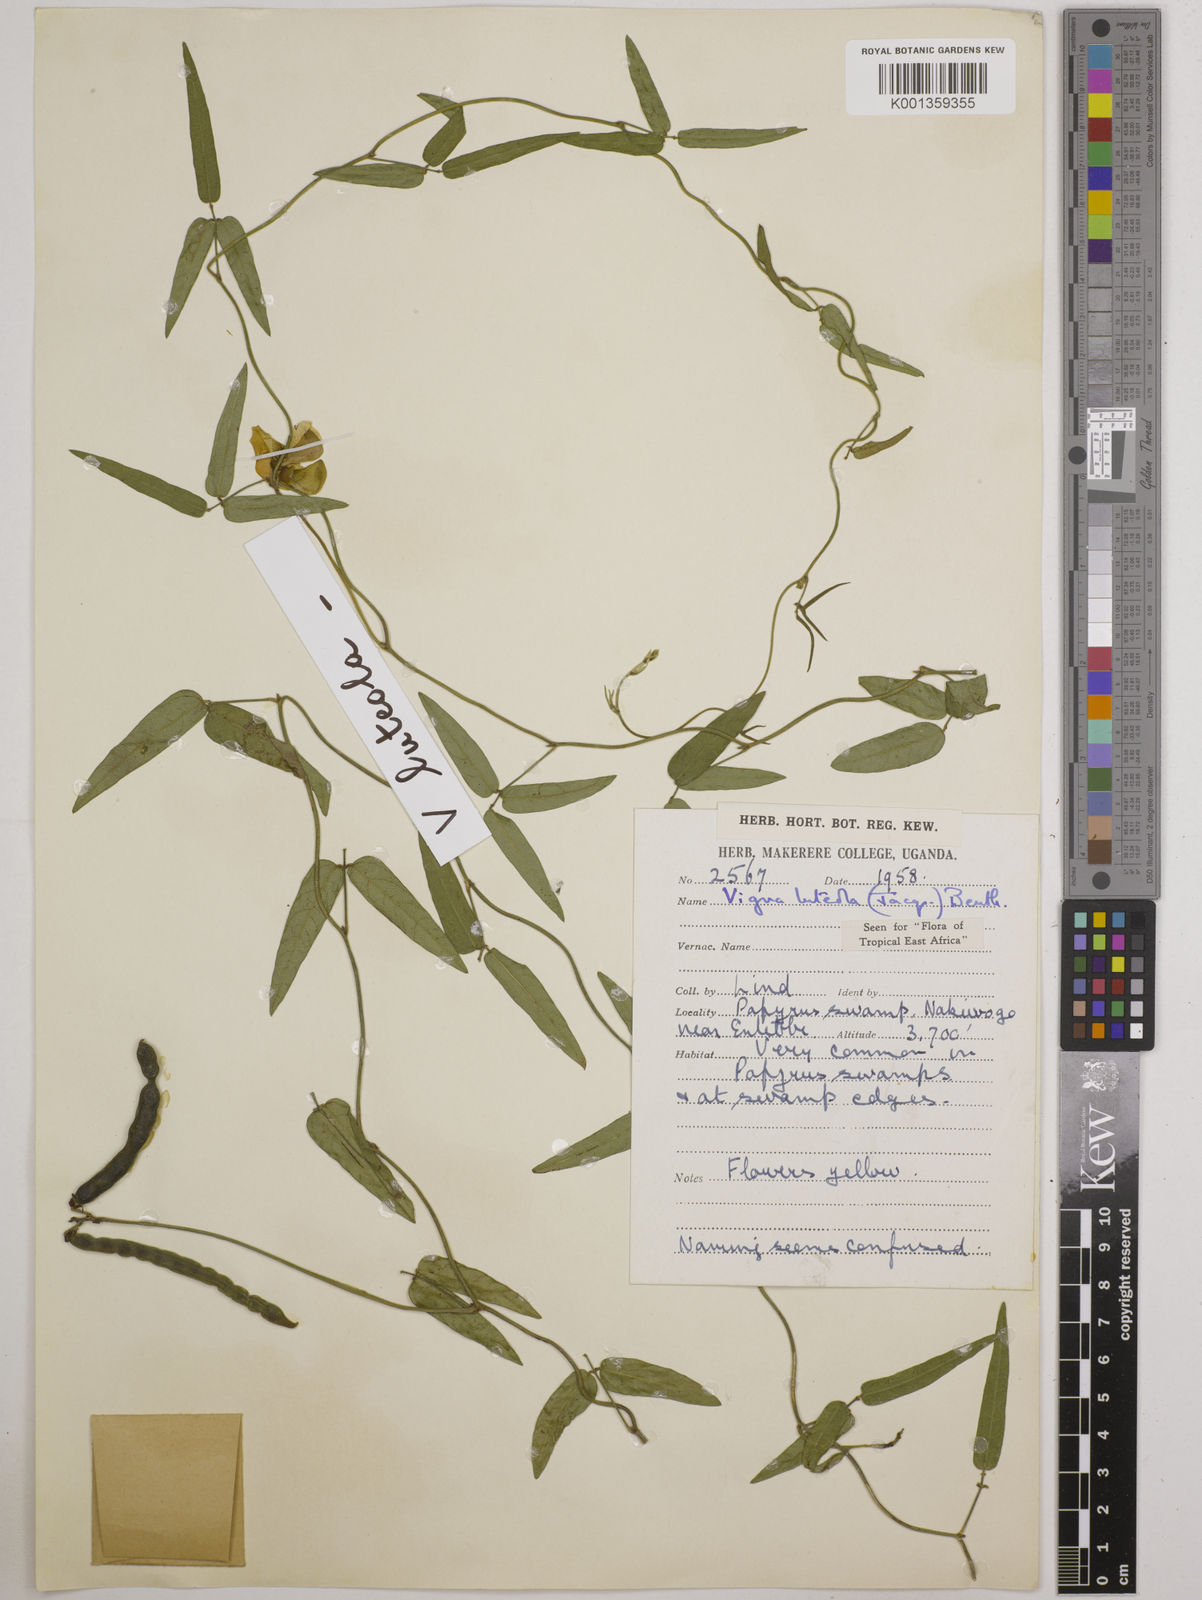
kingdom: Plantae
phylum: Tracheophyta
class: Magnoliopsida
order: Fabales
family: Fabaceae
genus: Vigna
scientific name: Vigna luteola
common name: Hairypod cowpea
